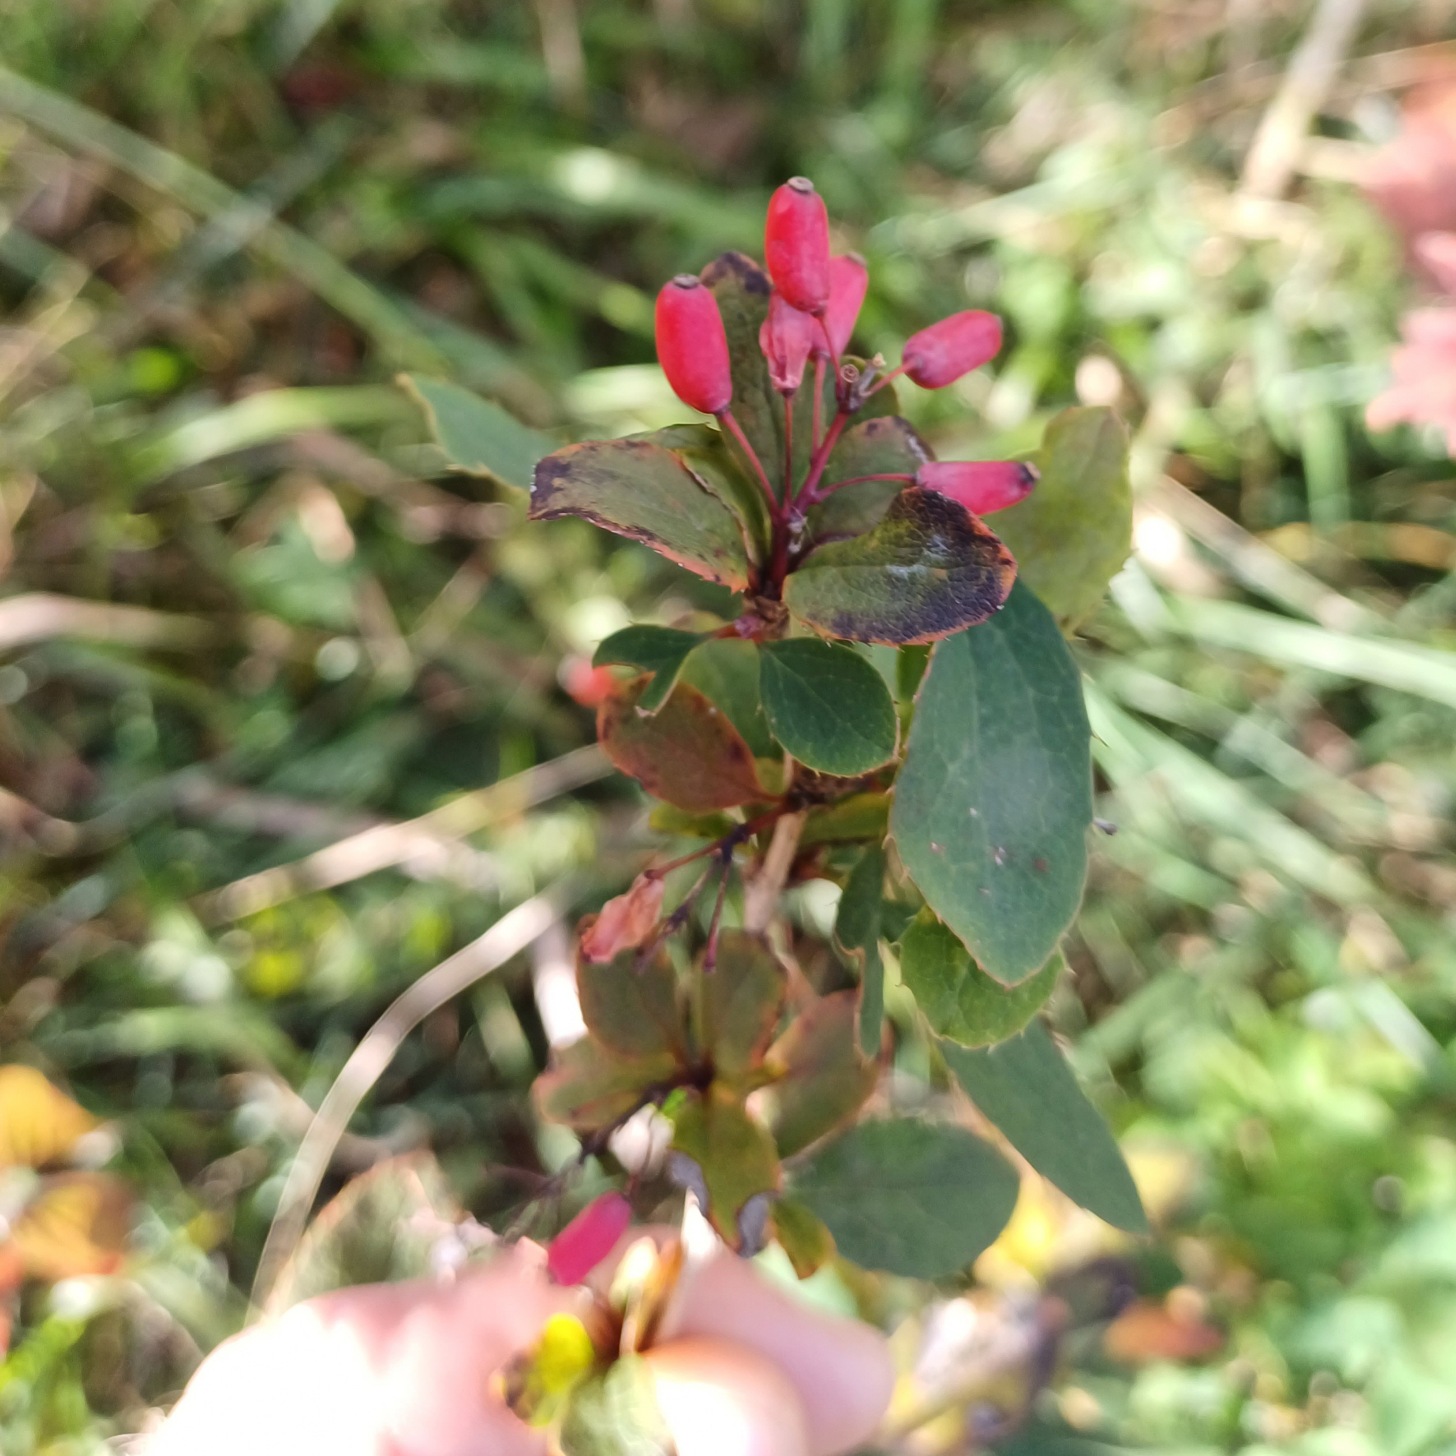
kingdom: Plantae
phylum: Tracheophyta
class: Magnoliopsida
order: Ranunculales
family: Berberidaceae
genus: Berberis
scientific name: Berberis vulgaris
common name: Almindelig berberis
